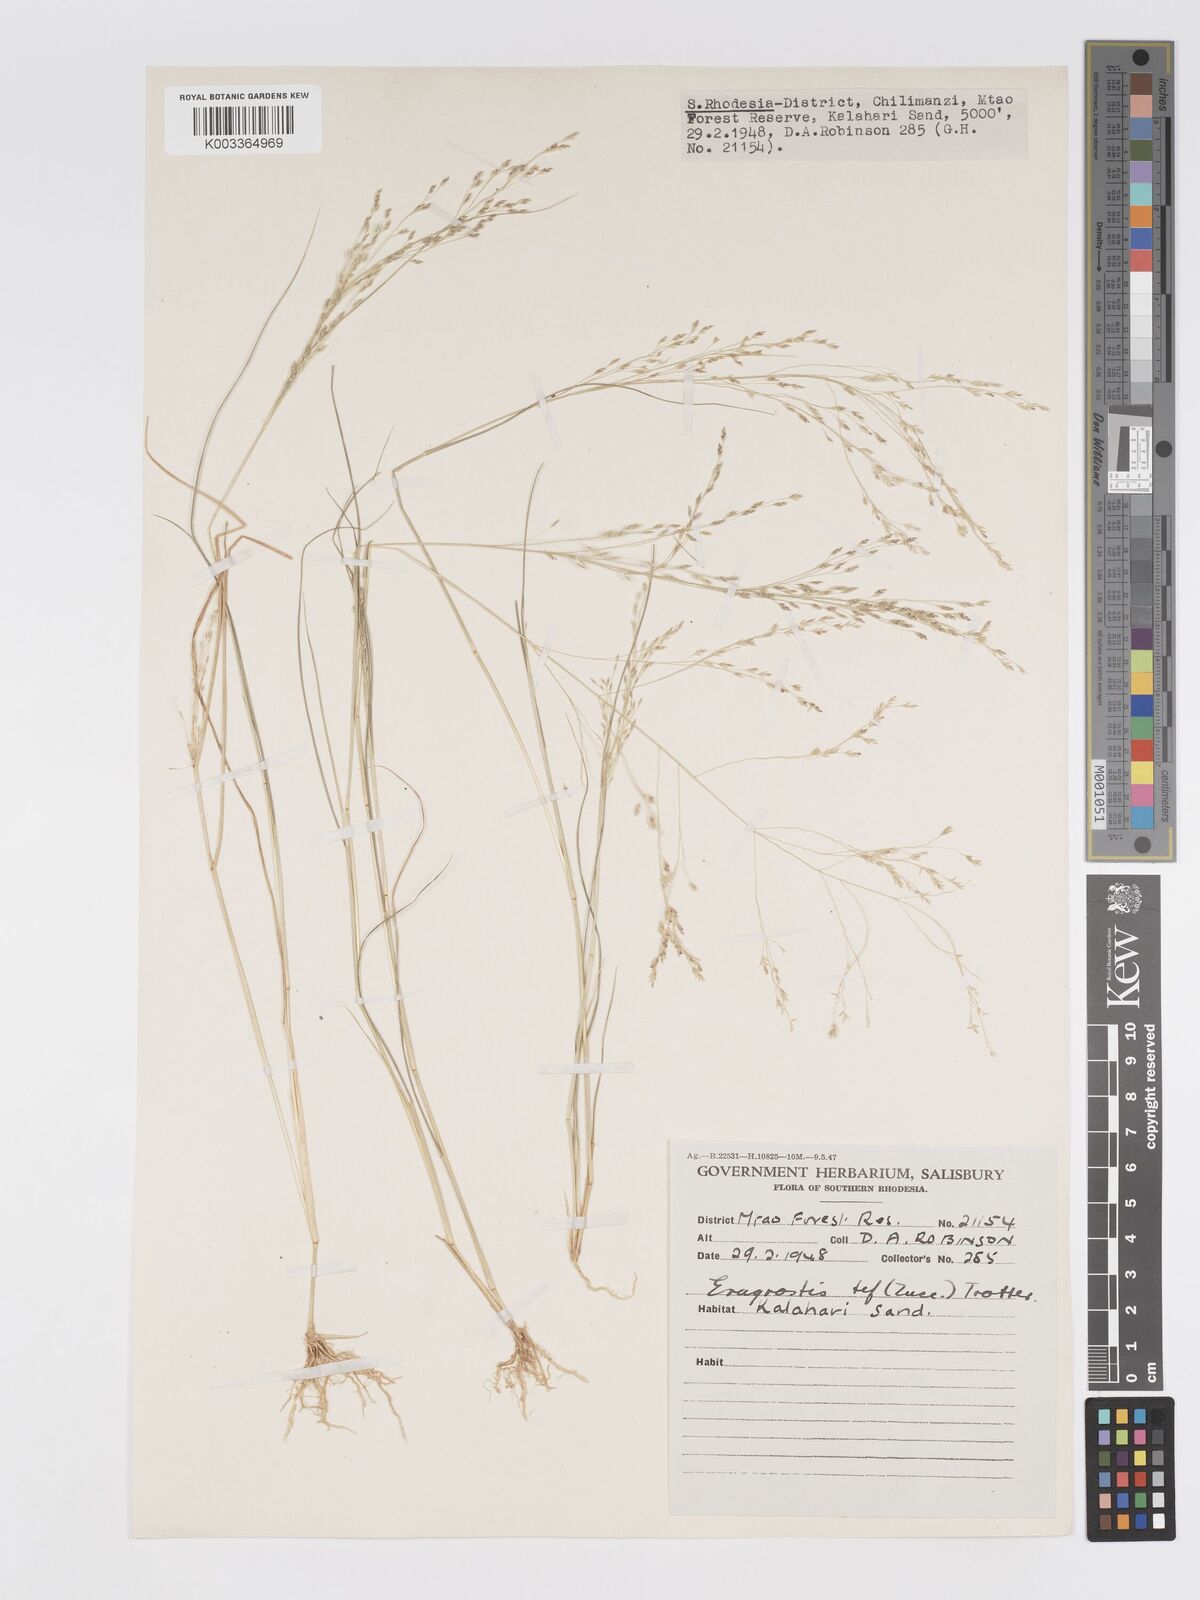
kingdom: Plantae
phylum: Tracheophyta
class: Liliopsida
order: Poales
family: Poaceae
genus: Eragrostis
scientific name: Eragrostis tef
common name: Teff
